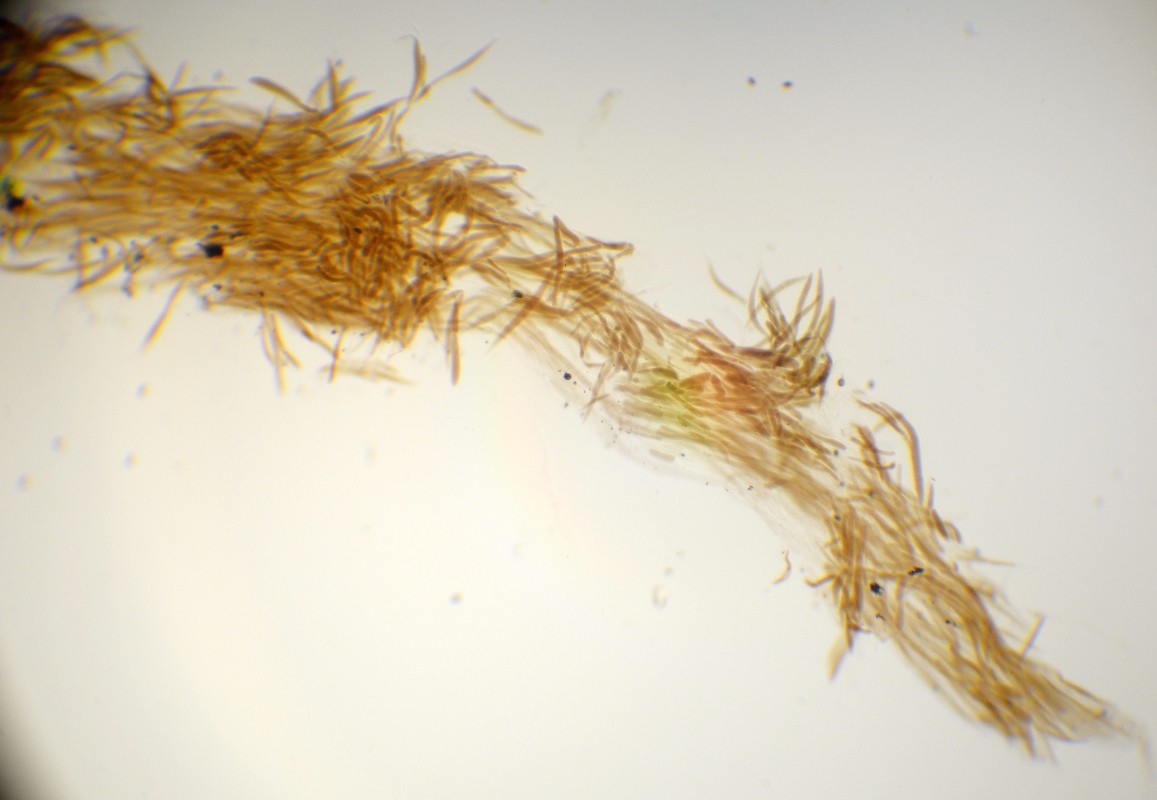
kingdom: Fungi
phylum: Basidiomycota
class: Agaricomycetes
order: Agaricales
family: Pluteaceae
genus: Pluteus
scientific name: Pluteus
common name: gråfibret skærmhat
